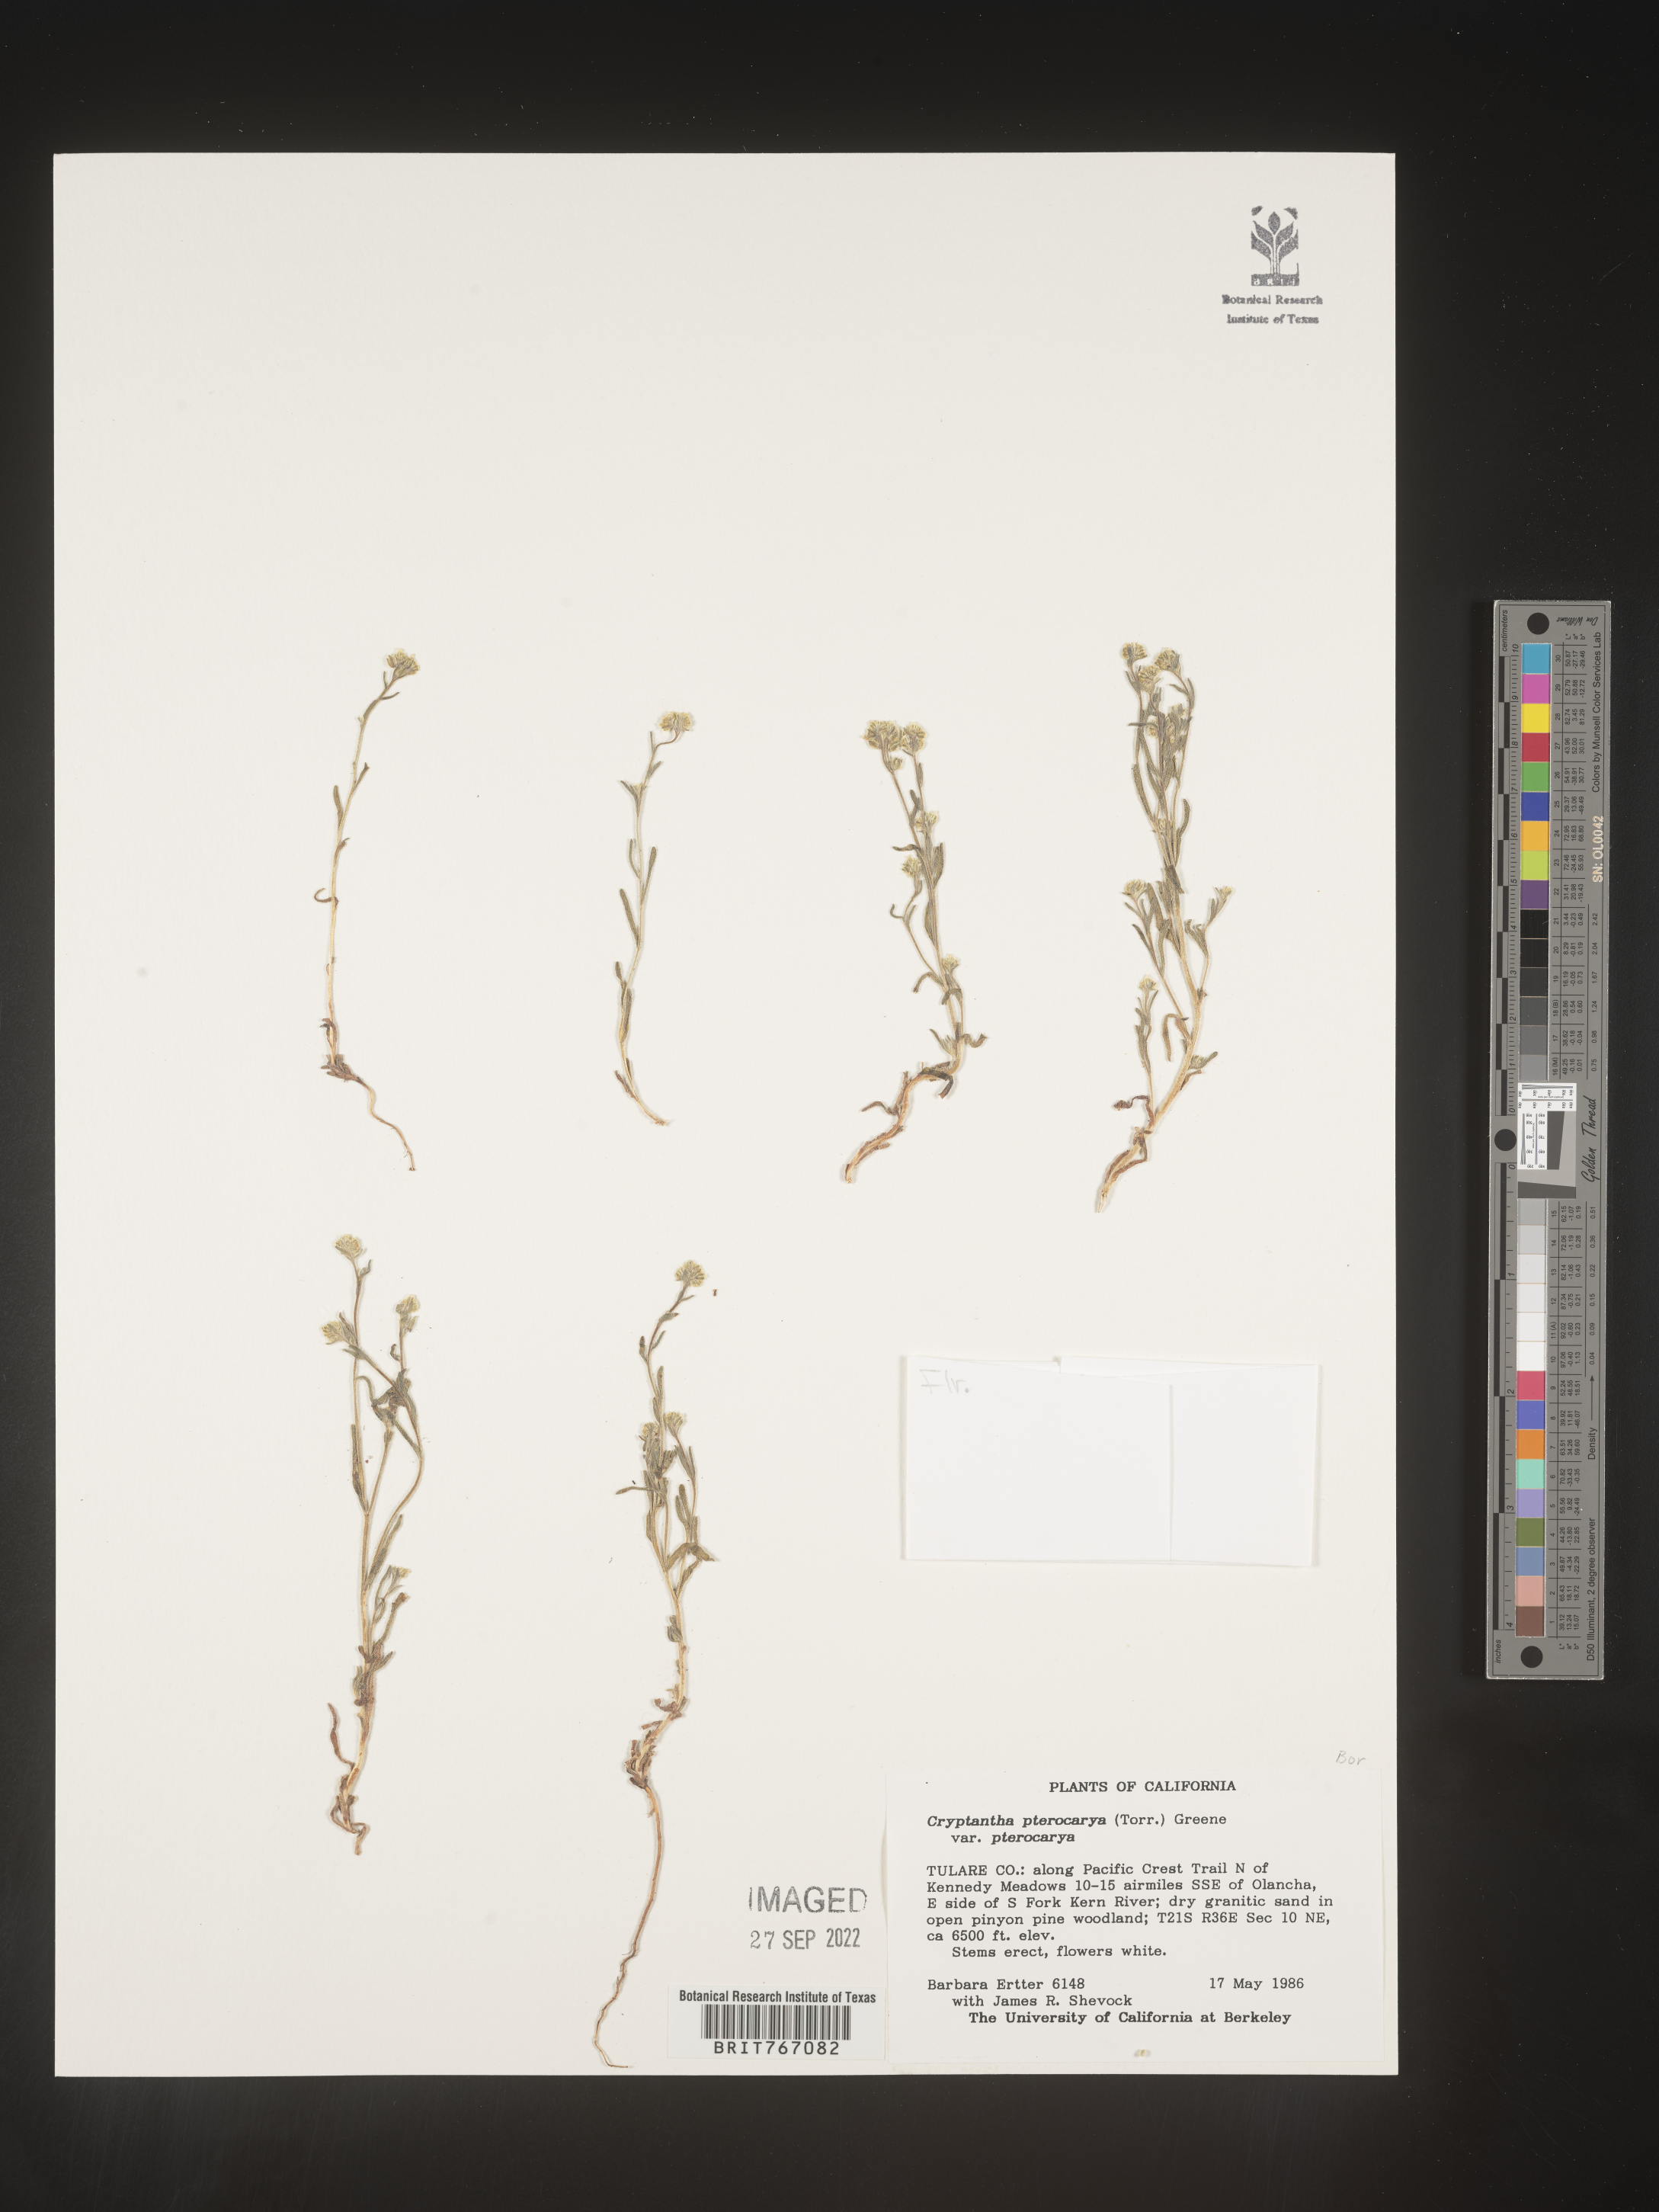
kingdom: Plantae
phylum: Tracheophyta
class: Magnoliopsida
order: Boraginales
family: Boraginaceae
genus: Cryptantha
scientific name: Cryptantha pterocarya
